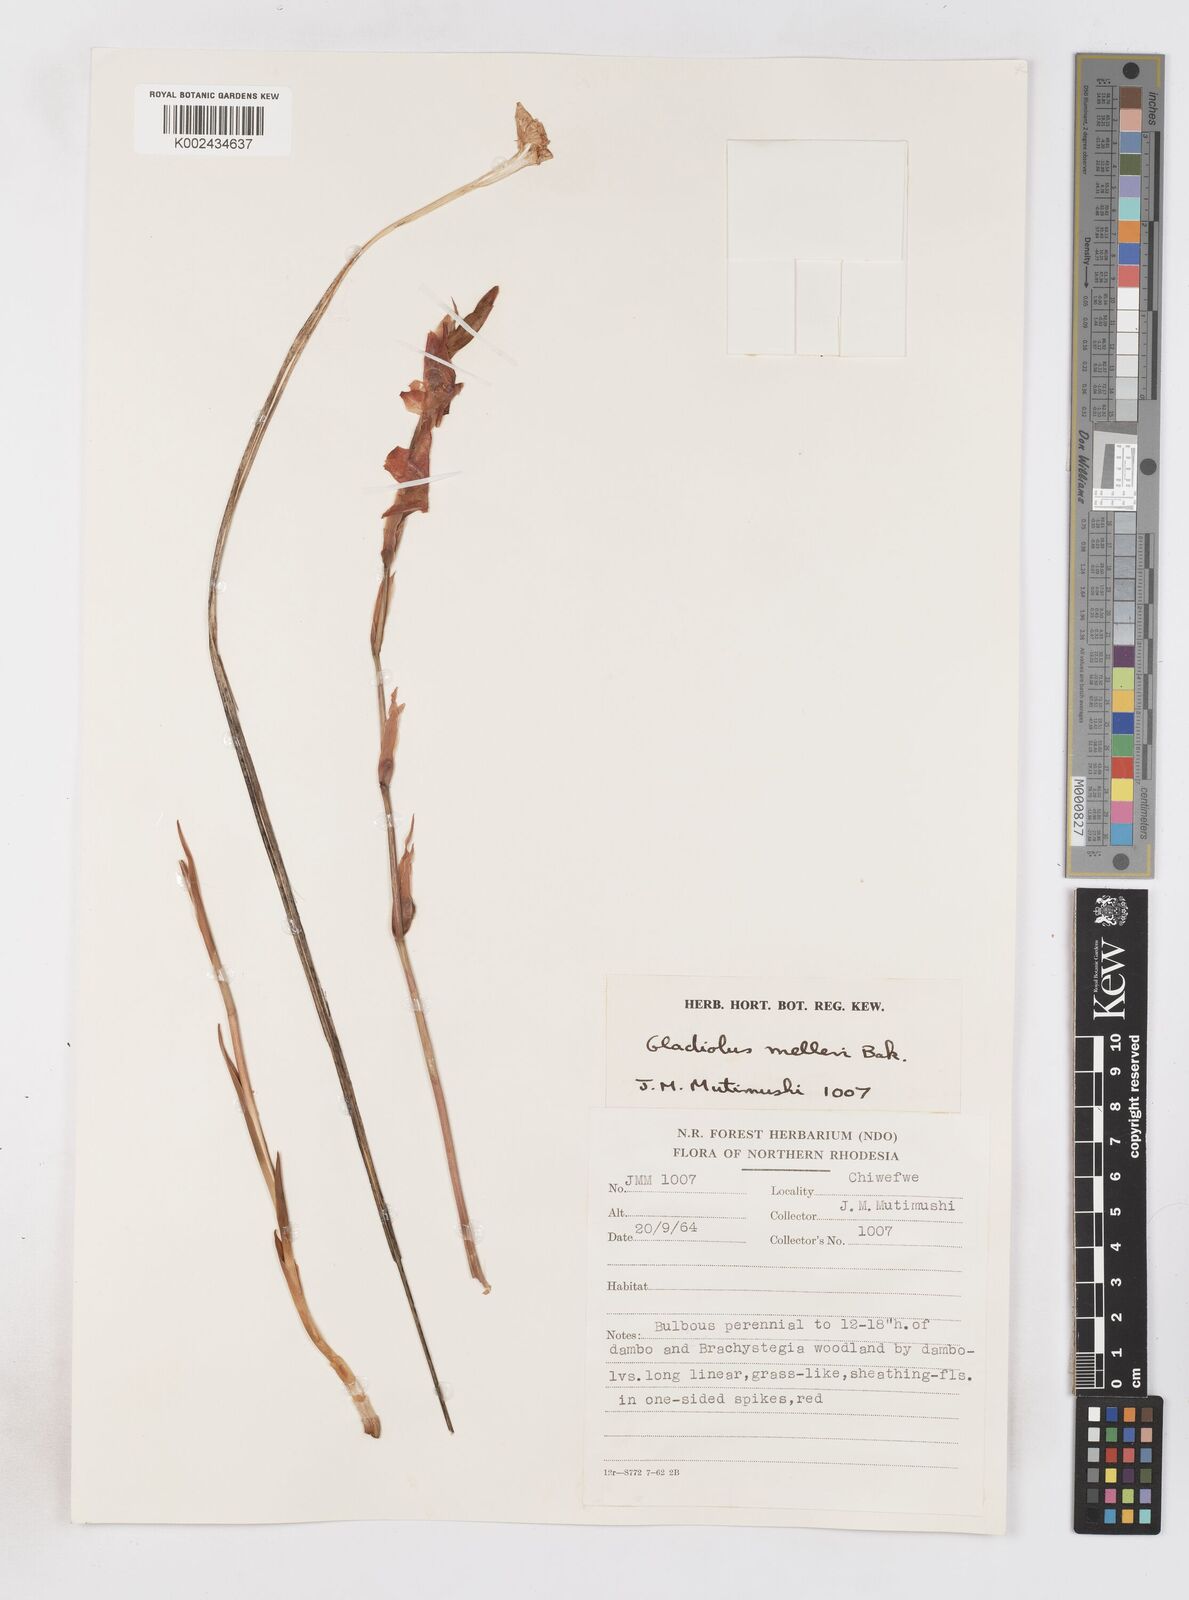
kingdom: Plantae
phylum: Tracheophyta
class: Liliopsida
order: Asparagales
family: Iridaceae
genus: Gladiolus
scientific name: Gladiolus melleri
